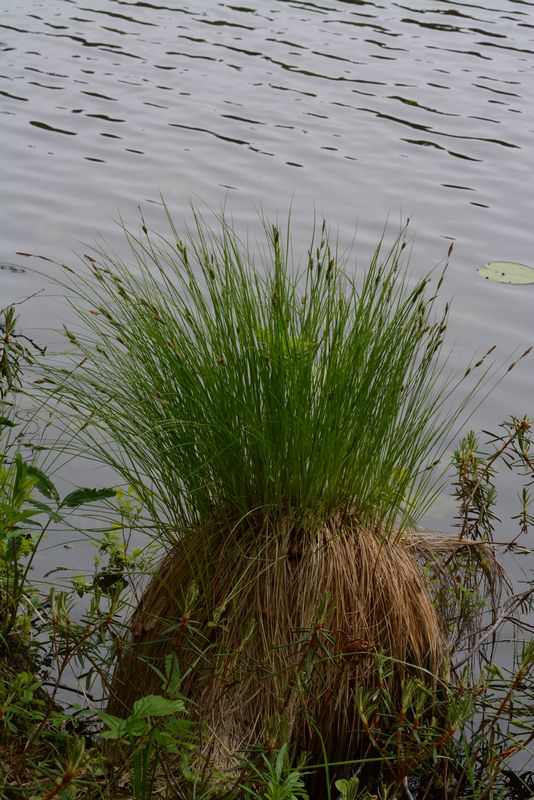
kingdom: Plantae
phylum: Tracheophyta
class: Liliopsida
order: Poales
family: Cyperaceae
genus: Carex
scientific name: Carex nigra
